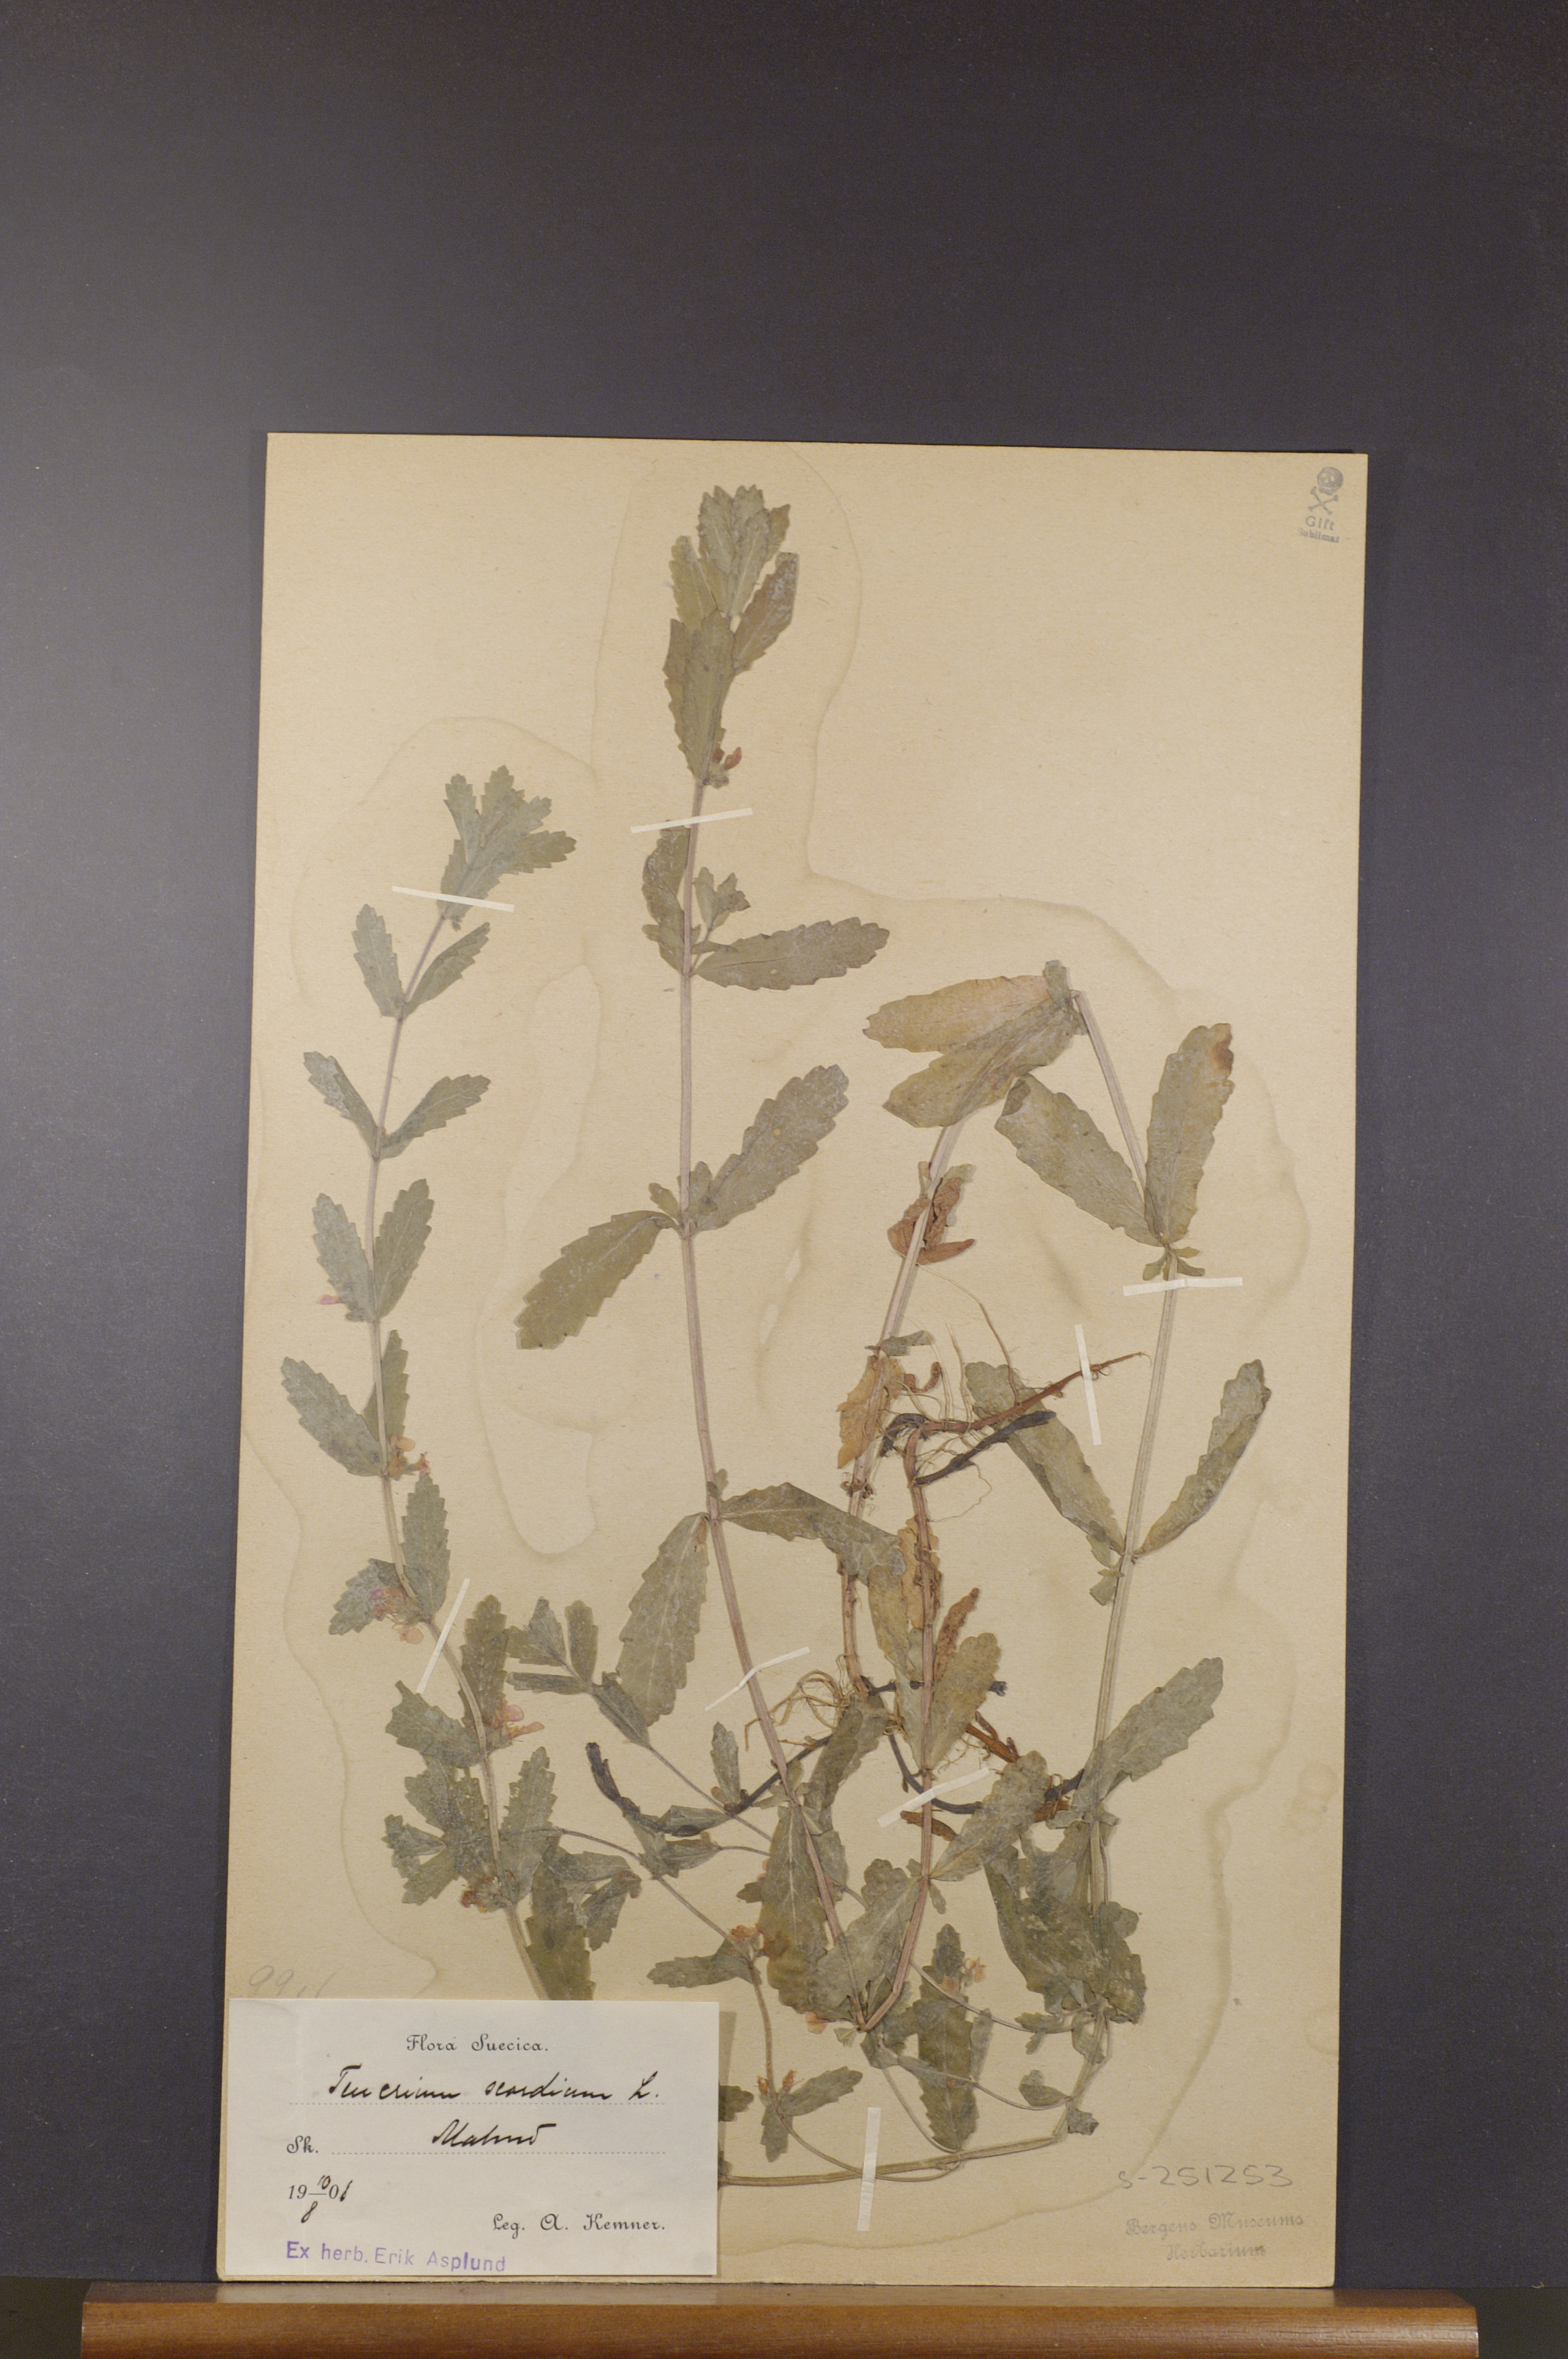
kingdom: Plantae
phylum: Tracheophyta
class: Magnoliopsida
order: Lamiales
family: Lamiaceae
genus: Teucrium
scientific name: Teucrium scordium
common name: Water germander
